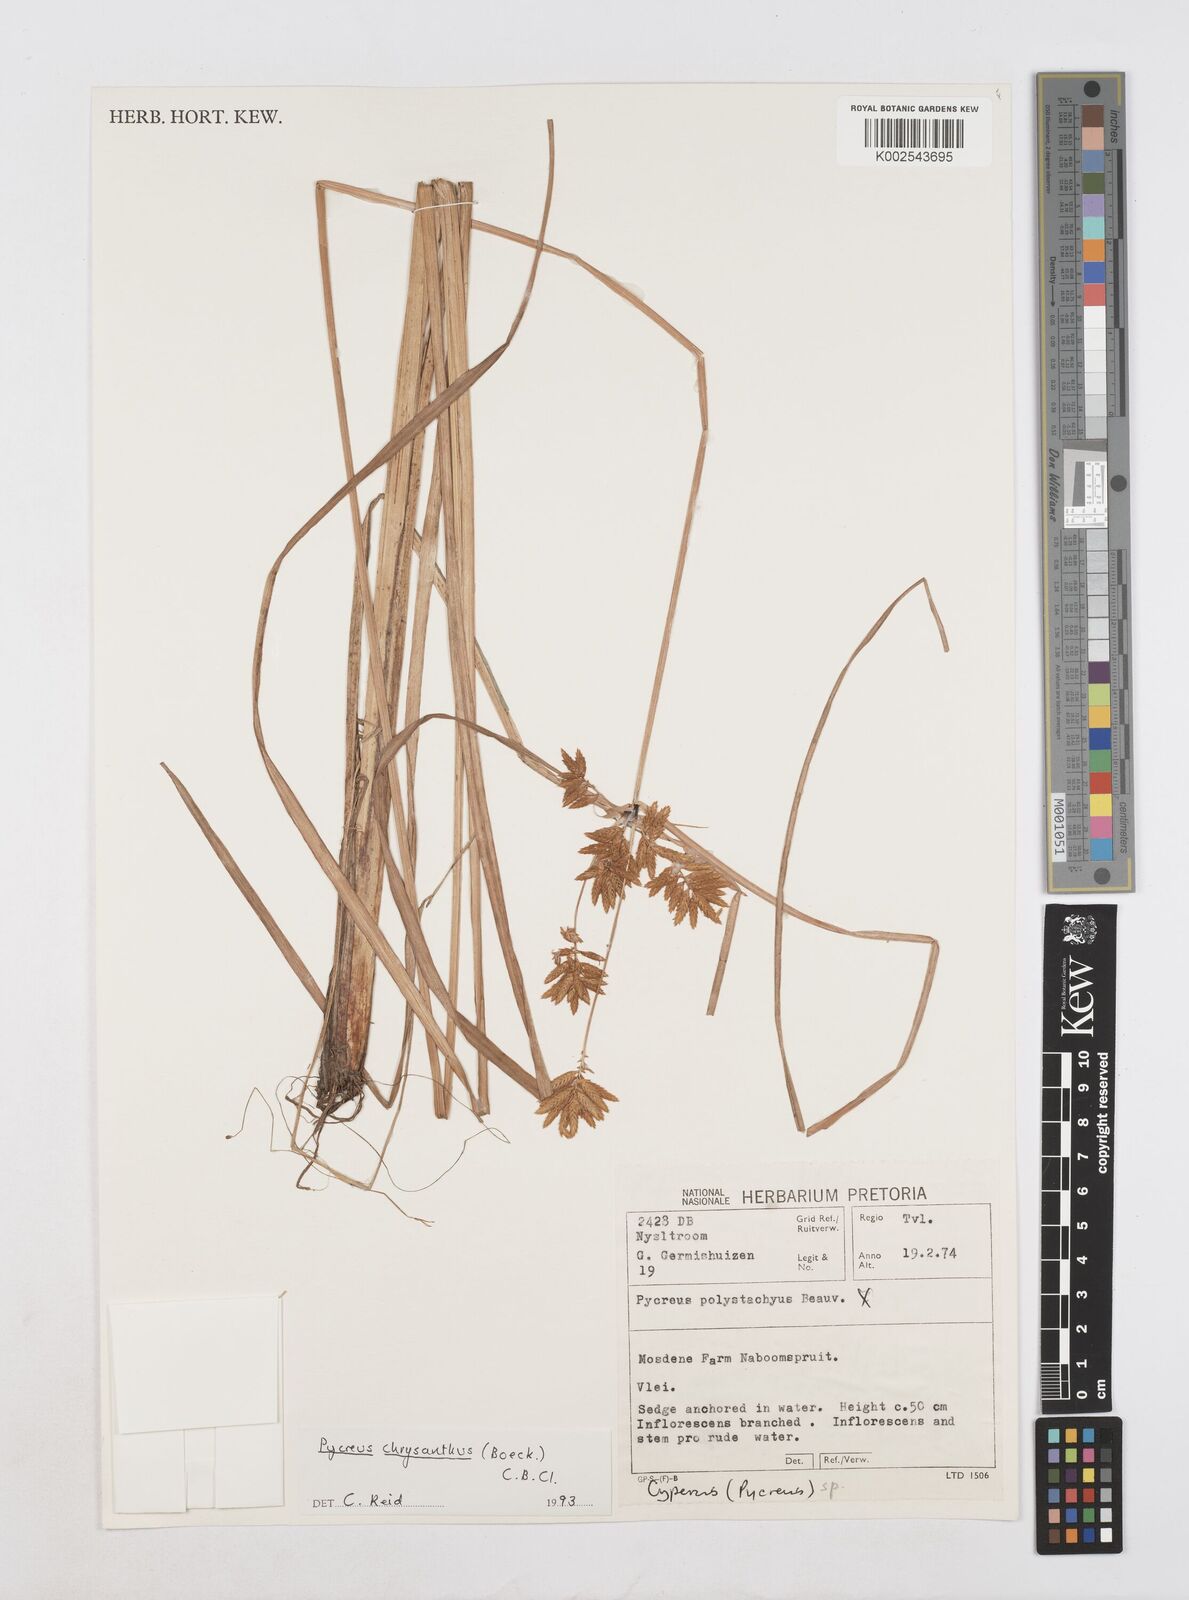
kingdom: Plantae
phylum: Tracheophyta
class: Liliopsida
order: Poales
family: Cyperaceae
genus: Cyperus
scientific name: Cyperus chrysanthus
